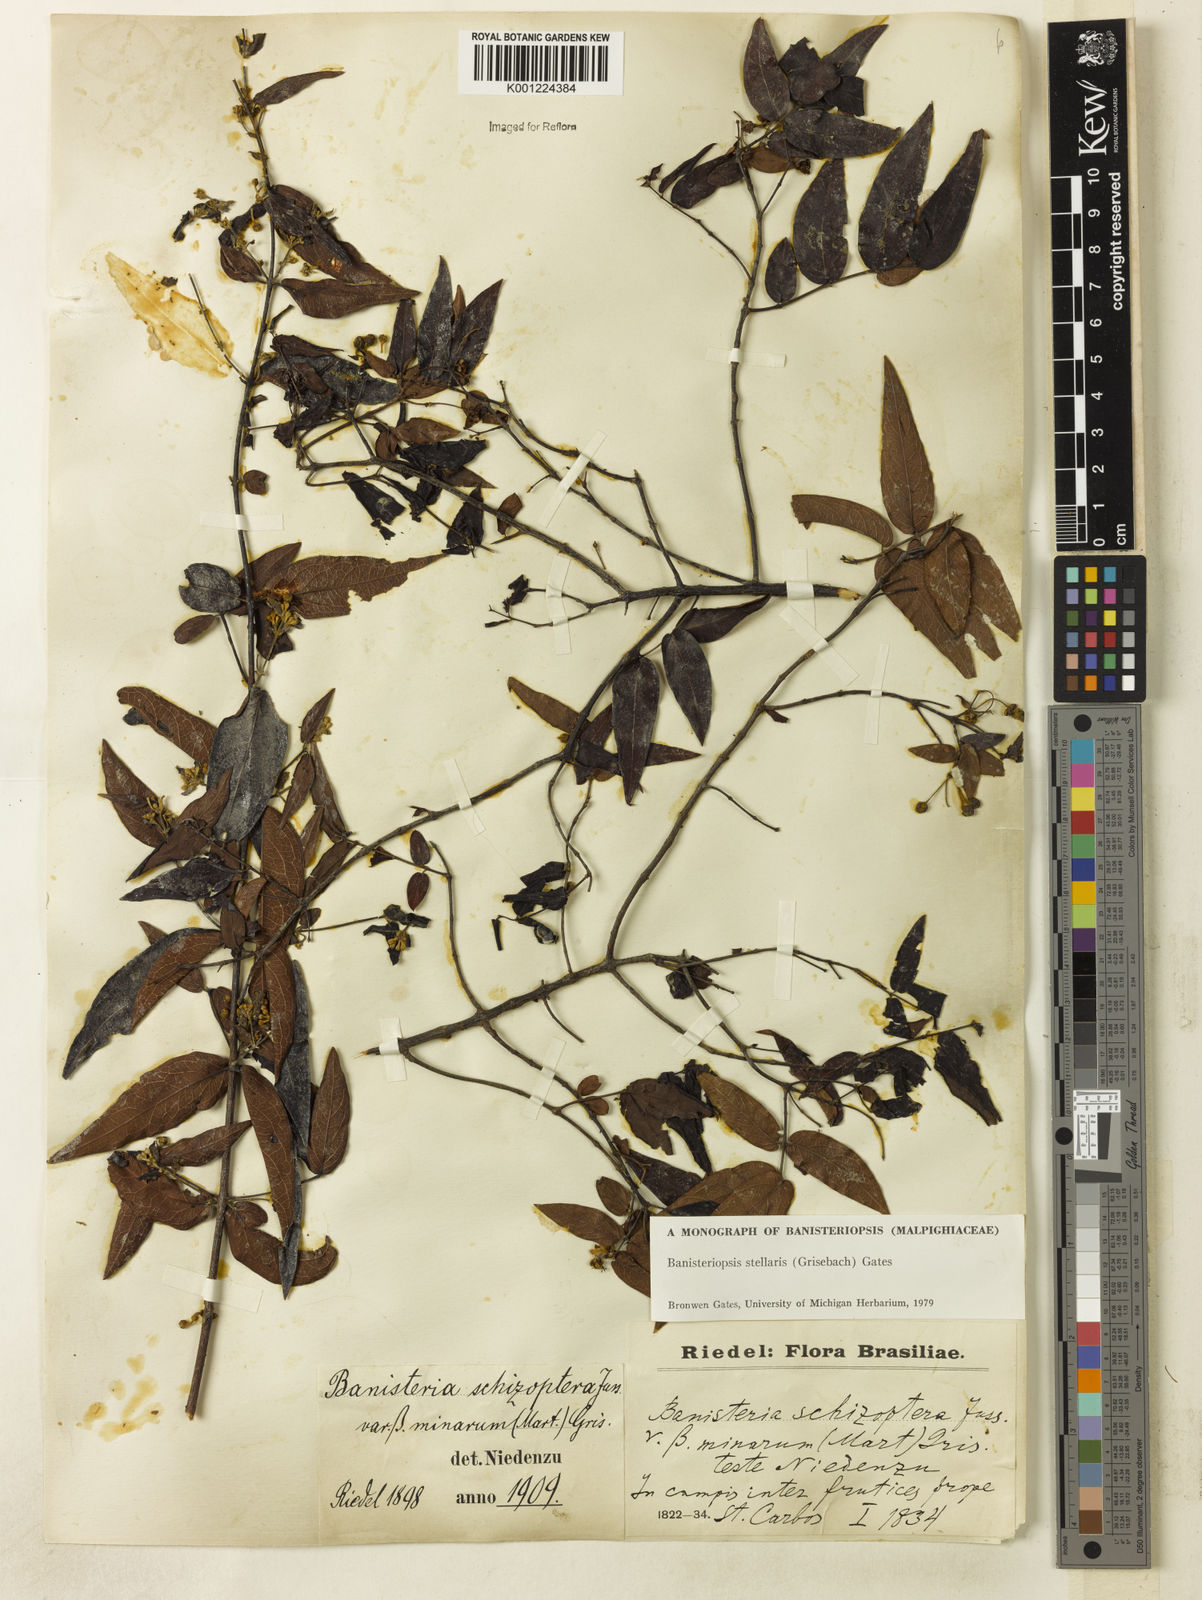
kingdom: Plantae
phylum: Tracheophyta
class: Magnoliopsida
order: Malpighiales
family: Malpighiaceae
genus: Banisteriopsis
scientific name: Banisteriopsis stellaris
